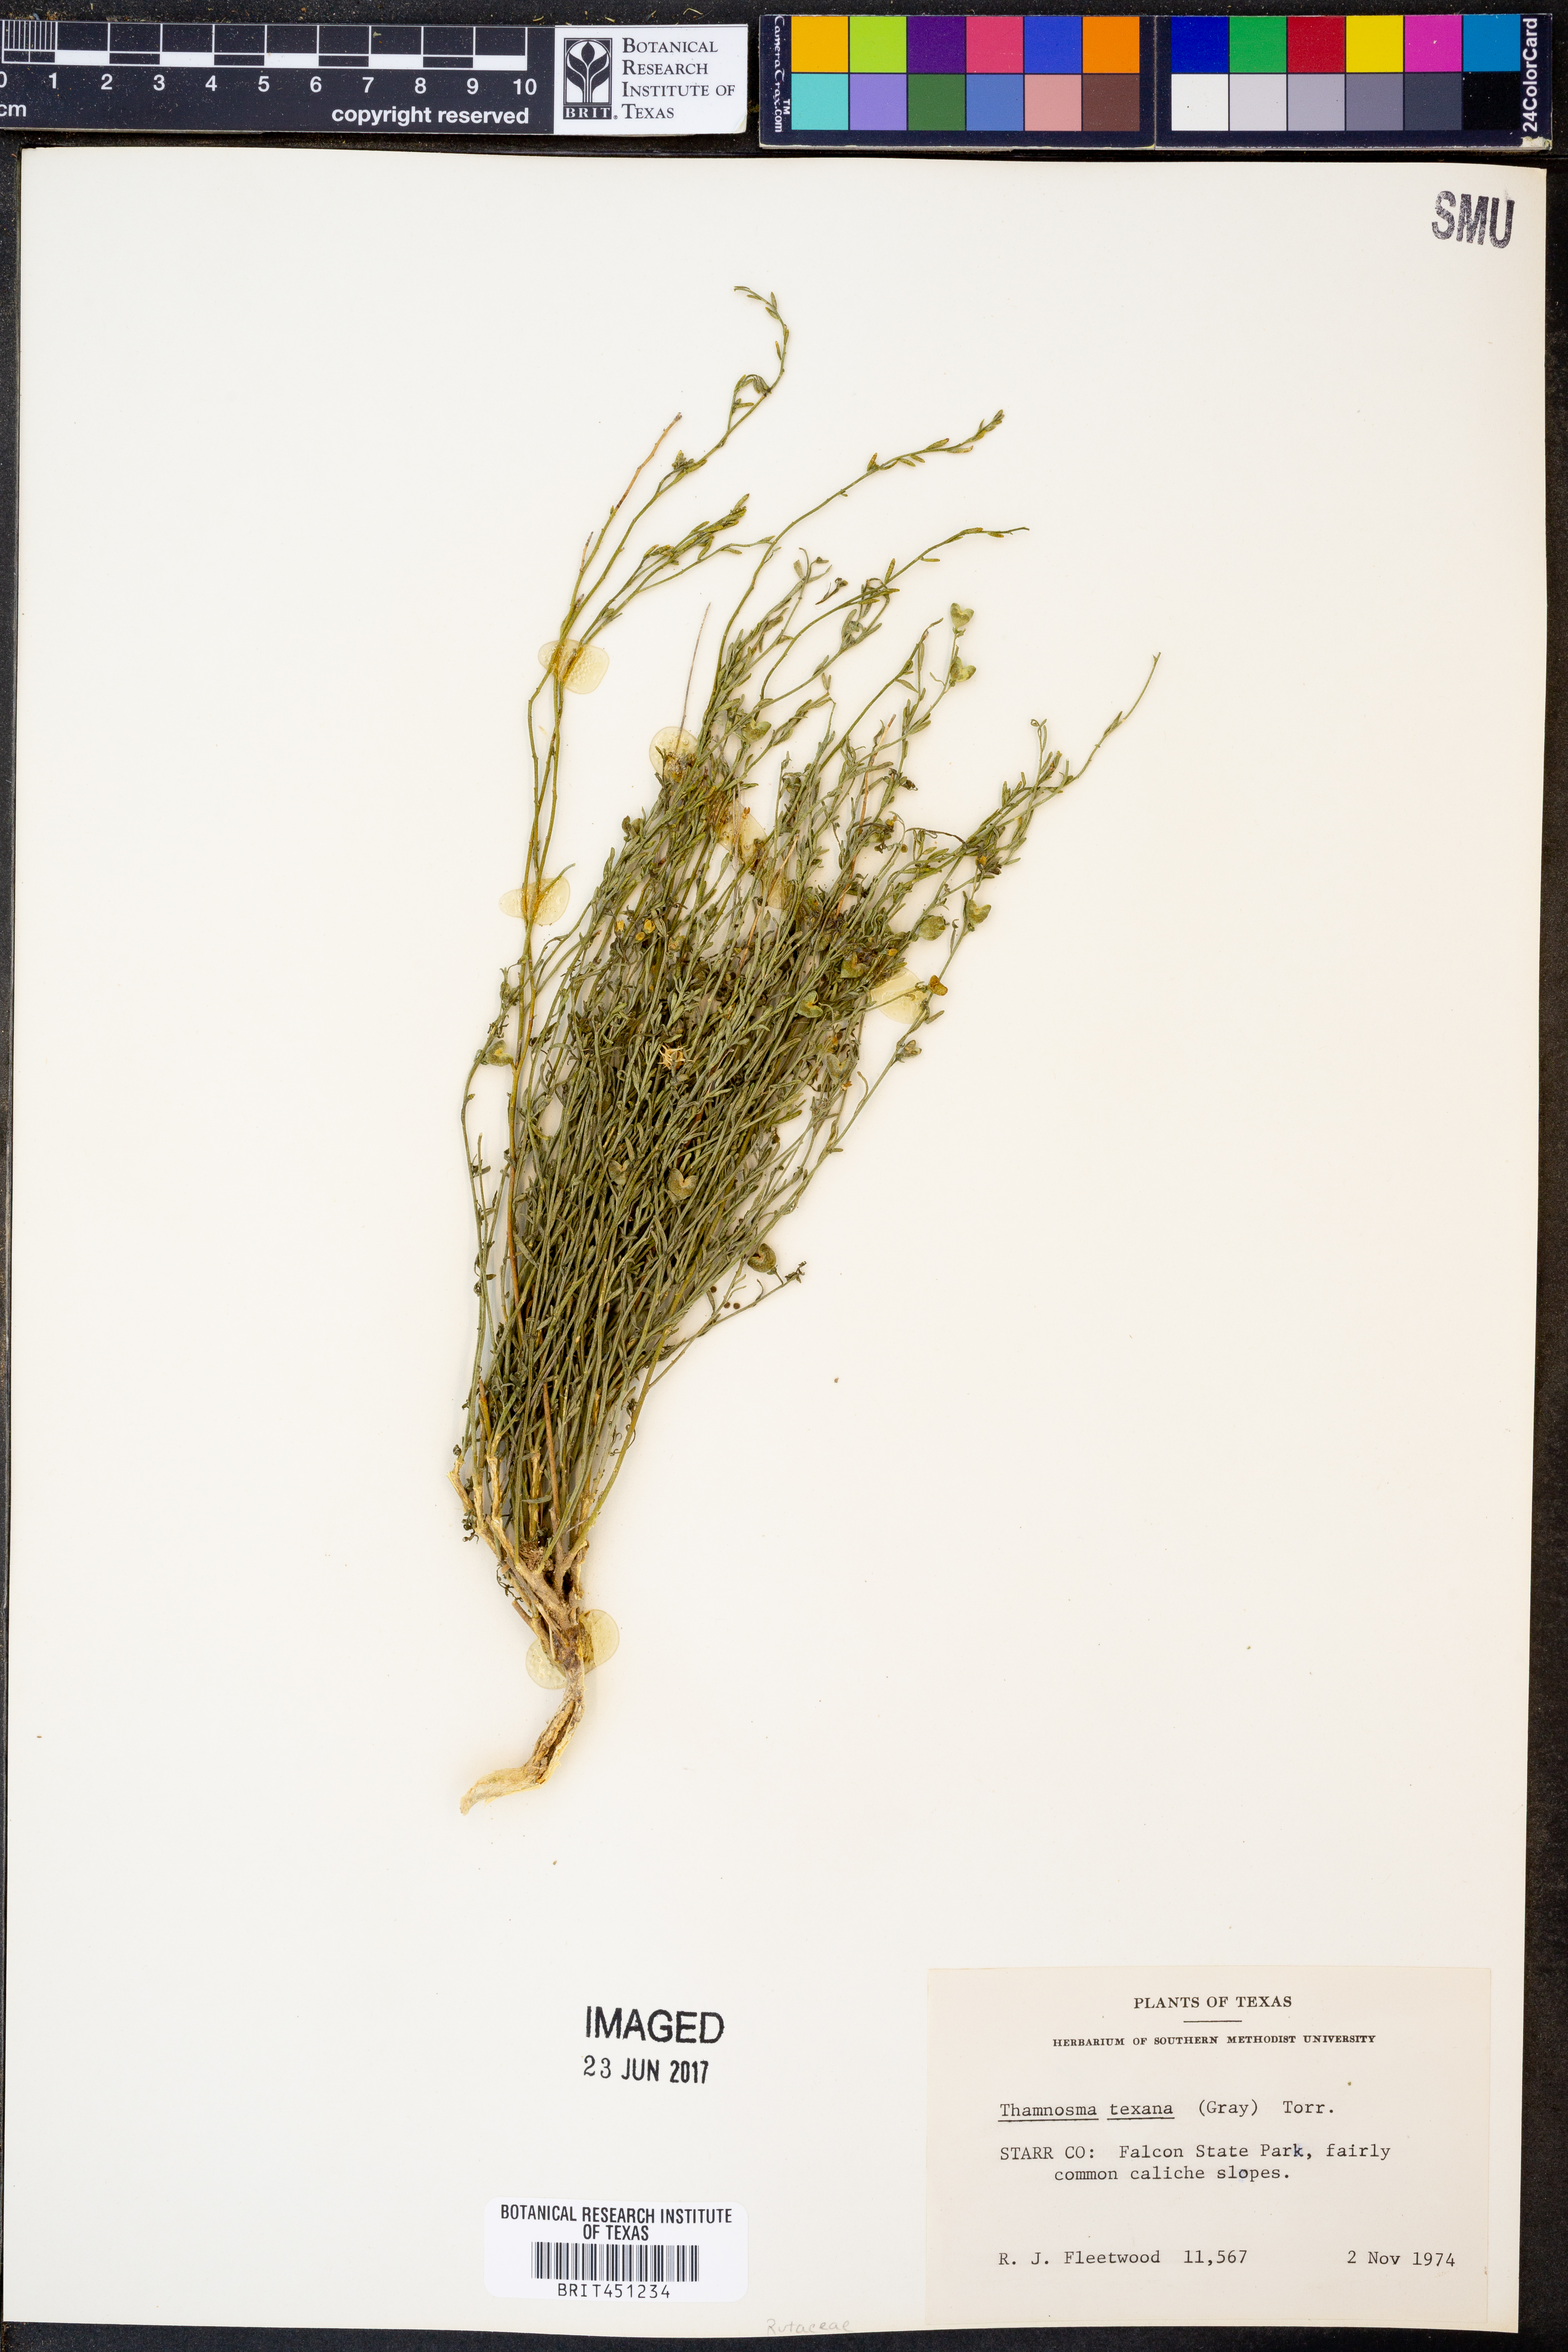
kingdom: Plantae
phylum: Tracheophyta
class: Magnoliopsida
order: Sapindales
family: Rutaceae
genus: Thamnosma
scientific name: Thamnosma texana
